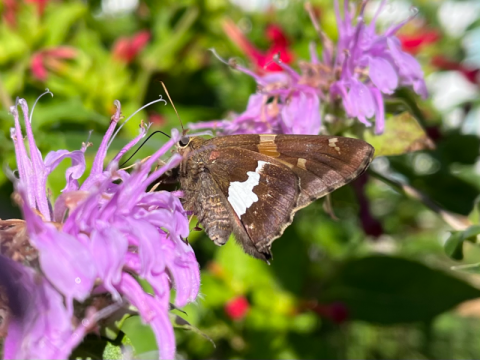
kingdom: Animalia
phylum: Arthropoda
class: Insecta
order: Lepidoptera
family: Hesperiidae
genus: Epargyreus
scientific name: Epargyreus clarus
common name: Silver-spotted Skipper
